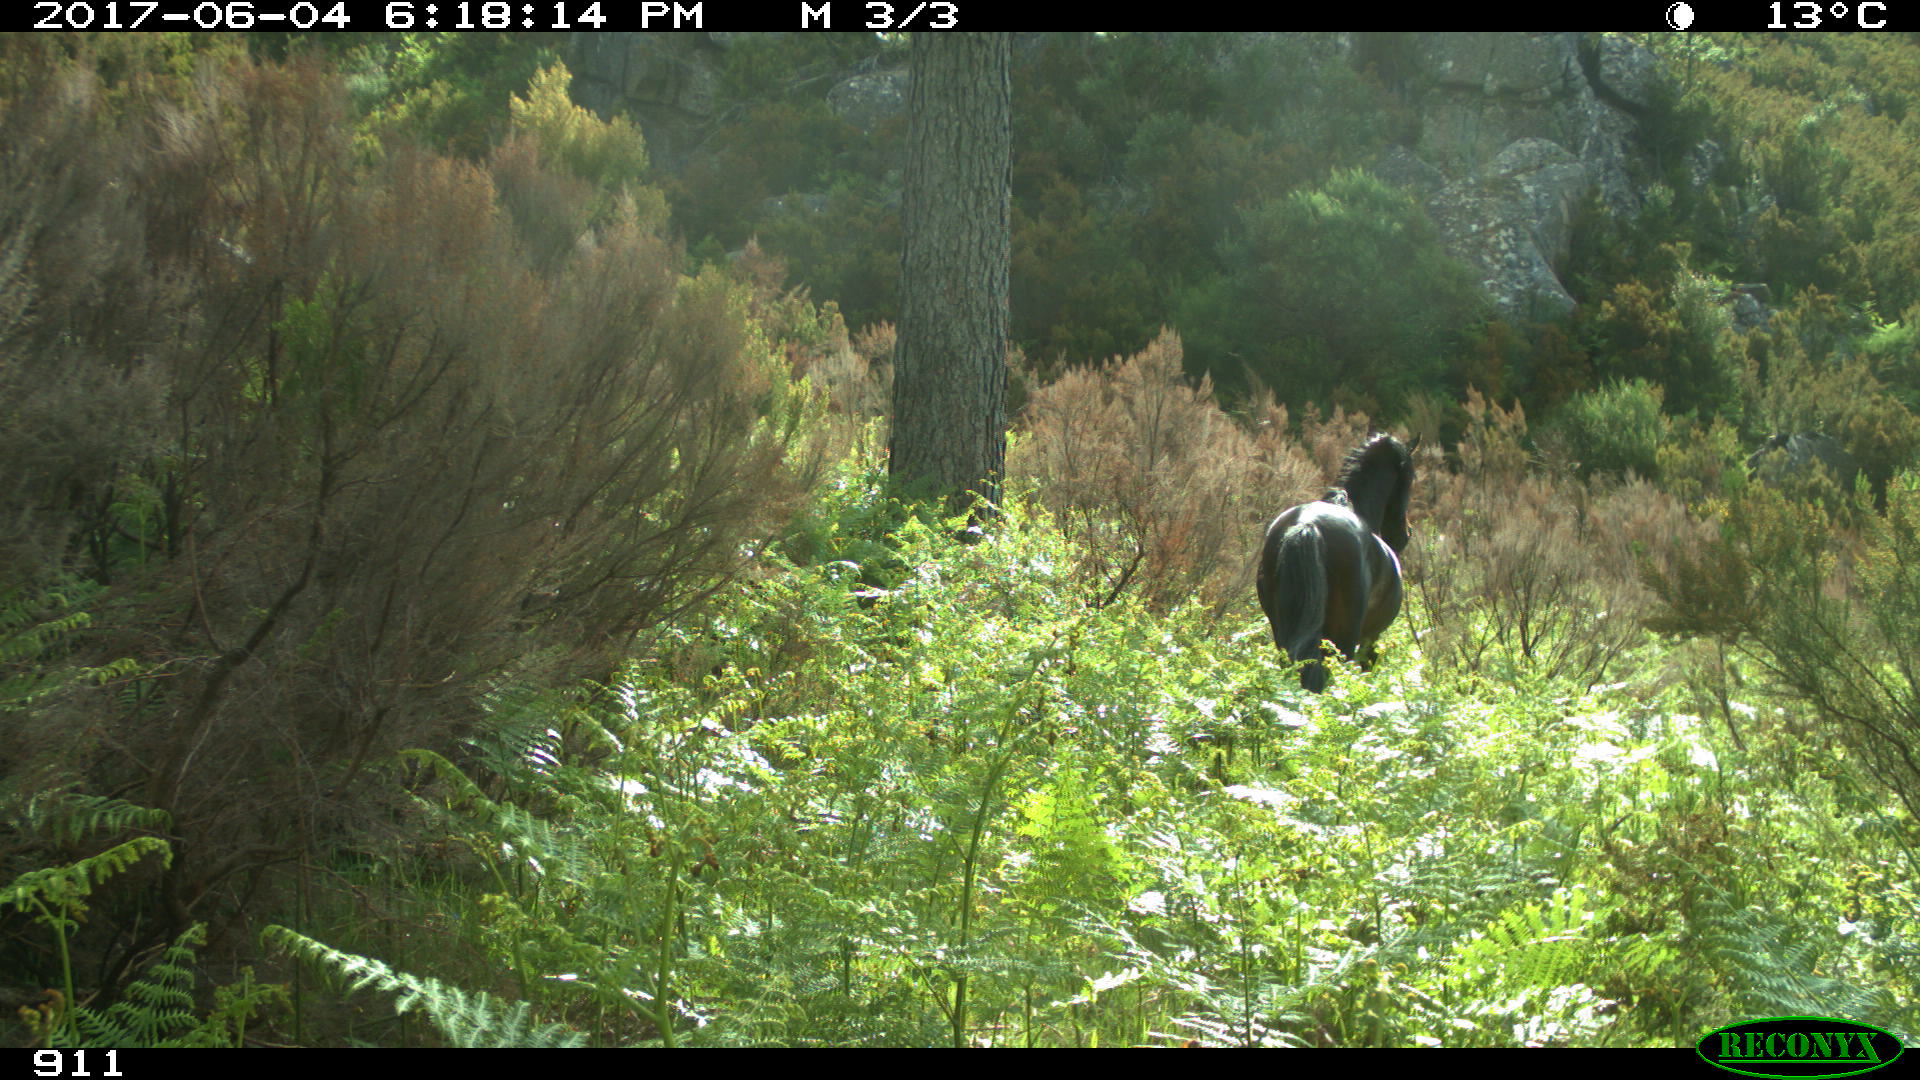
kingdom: Animalia
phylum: Chordata
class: Mammalia
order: Perissodactyla
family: Equidae
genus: Equus
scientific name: Equus caballus
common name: Horse
